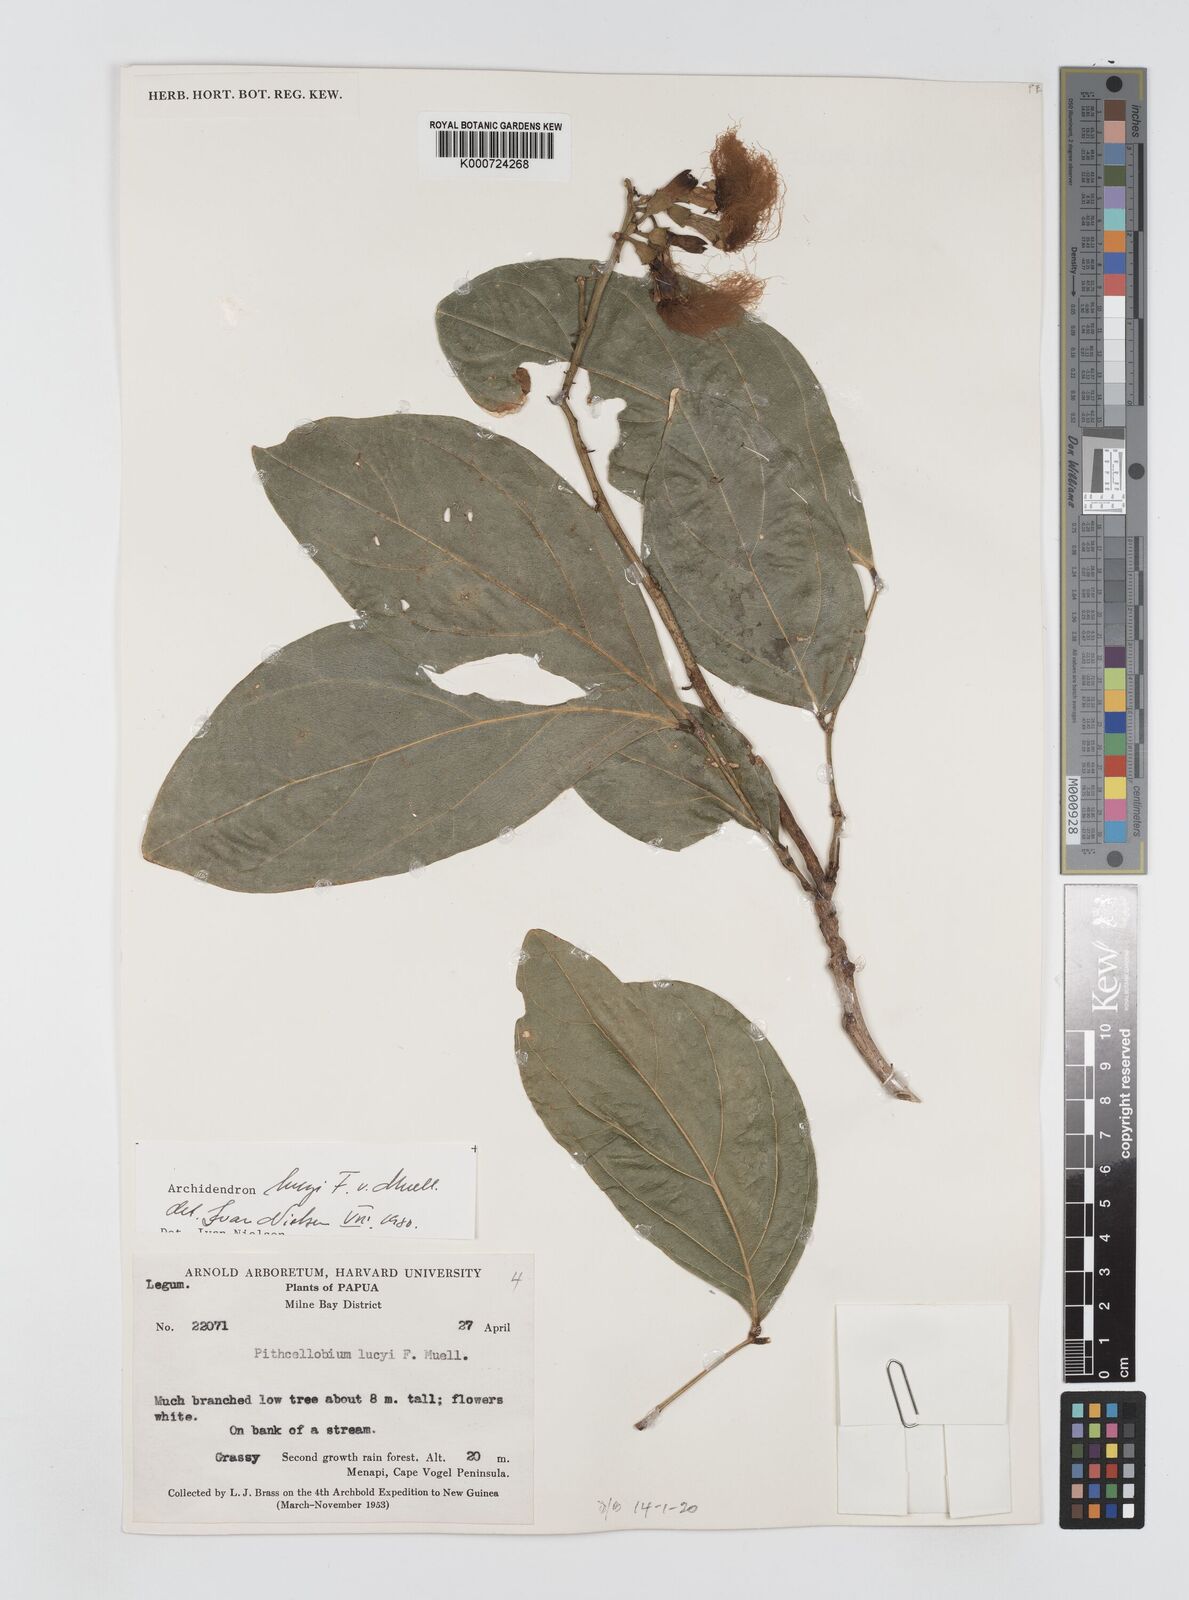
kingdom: Plantae
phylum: Tracheophyta
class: Magnoliopsida
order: Fabales
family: Fabaceae
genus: Archidendron
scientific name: Archidendron lucyi
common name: Scarlet bean
